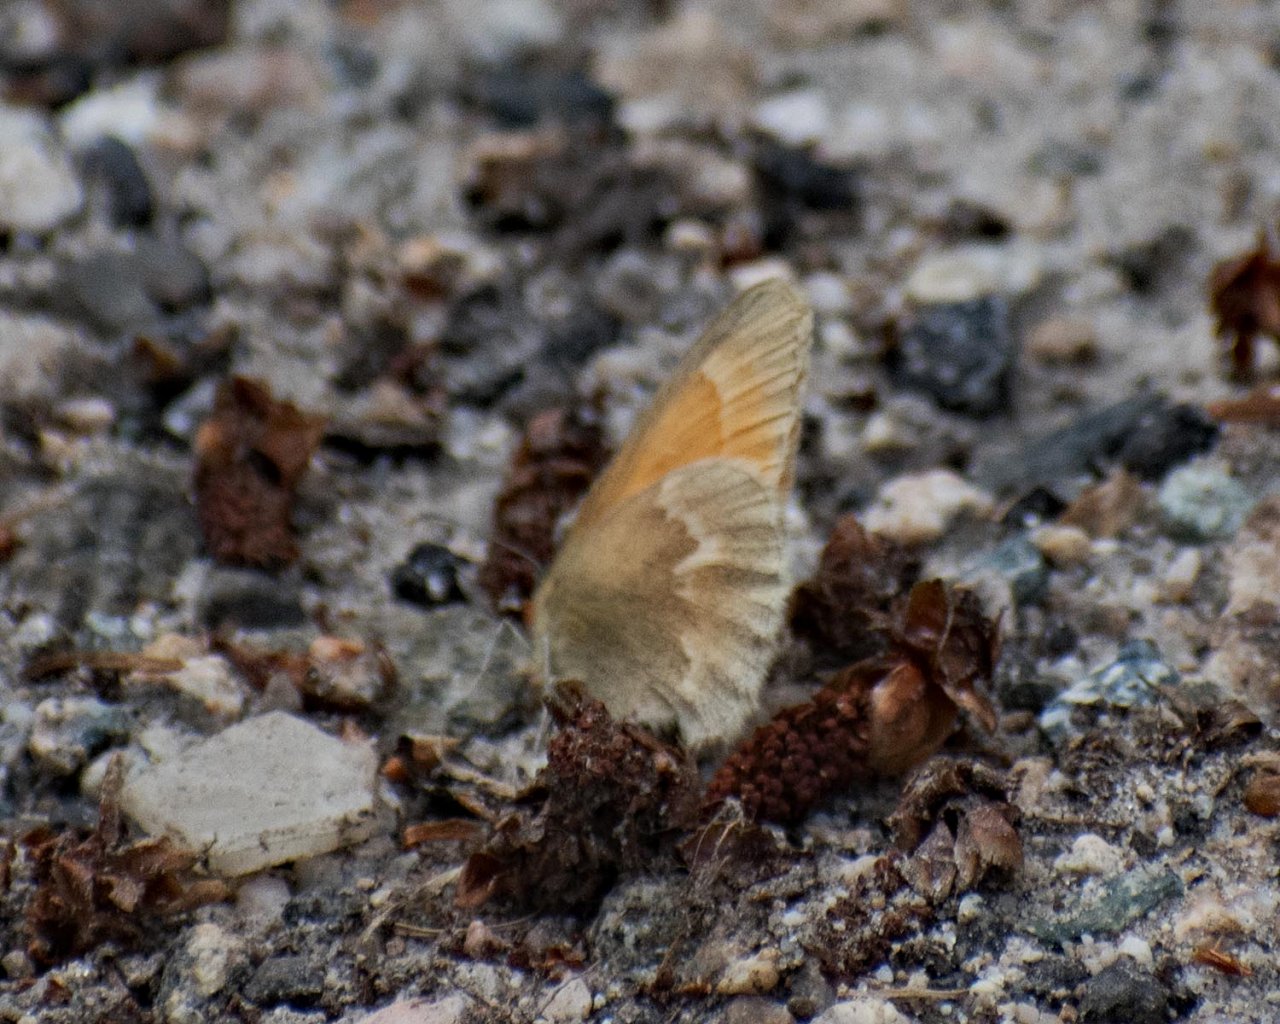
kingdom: Animalia
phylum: Arthropoda
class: Insecta
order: Lepidoptera
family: Nymphalidae
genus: Coenonympha
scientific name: Coenonympha tullia
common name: Large Heath
